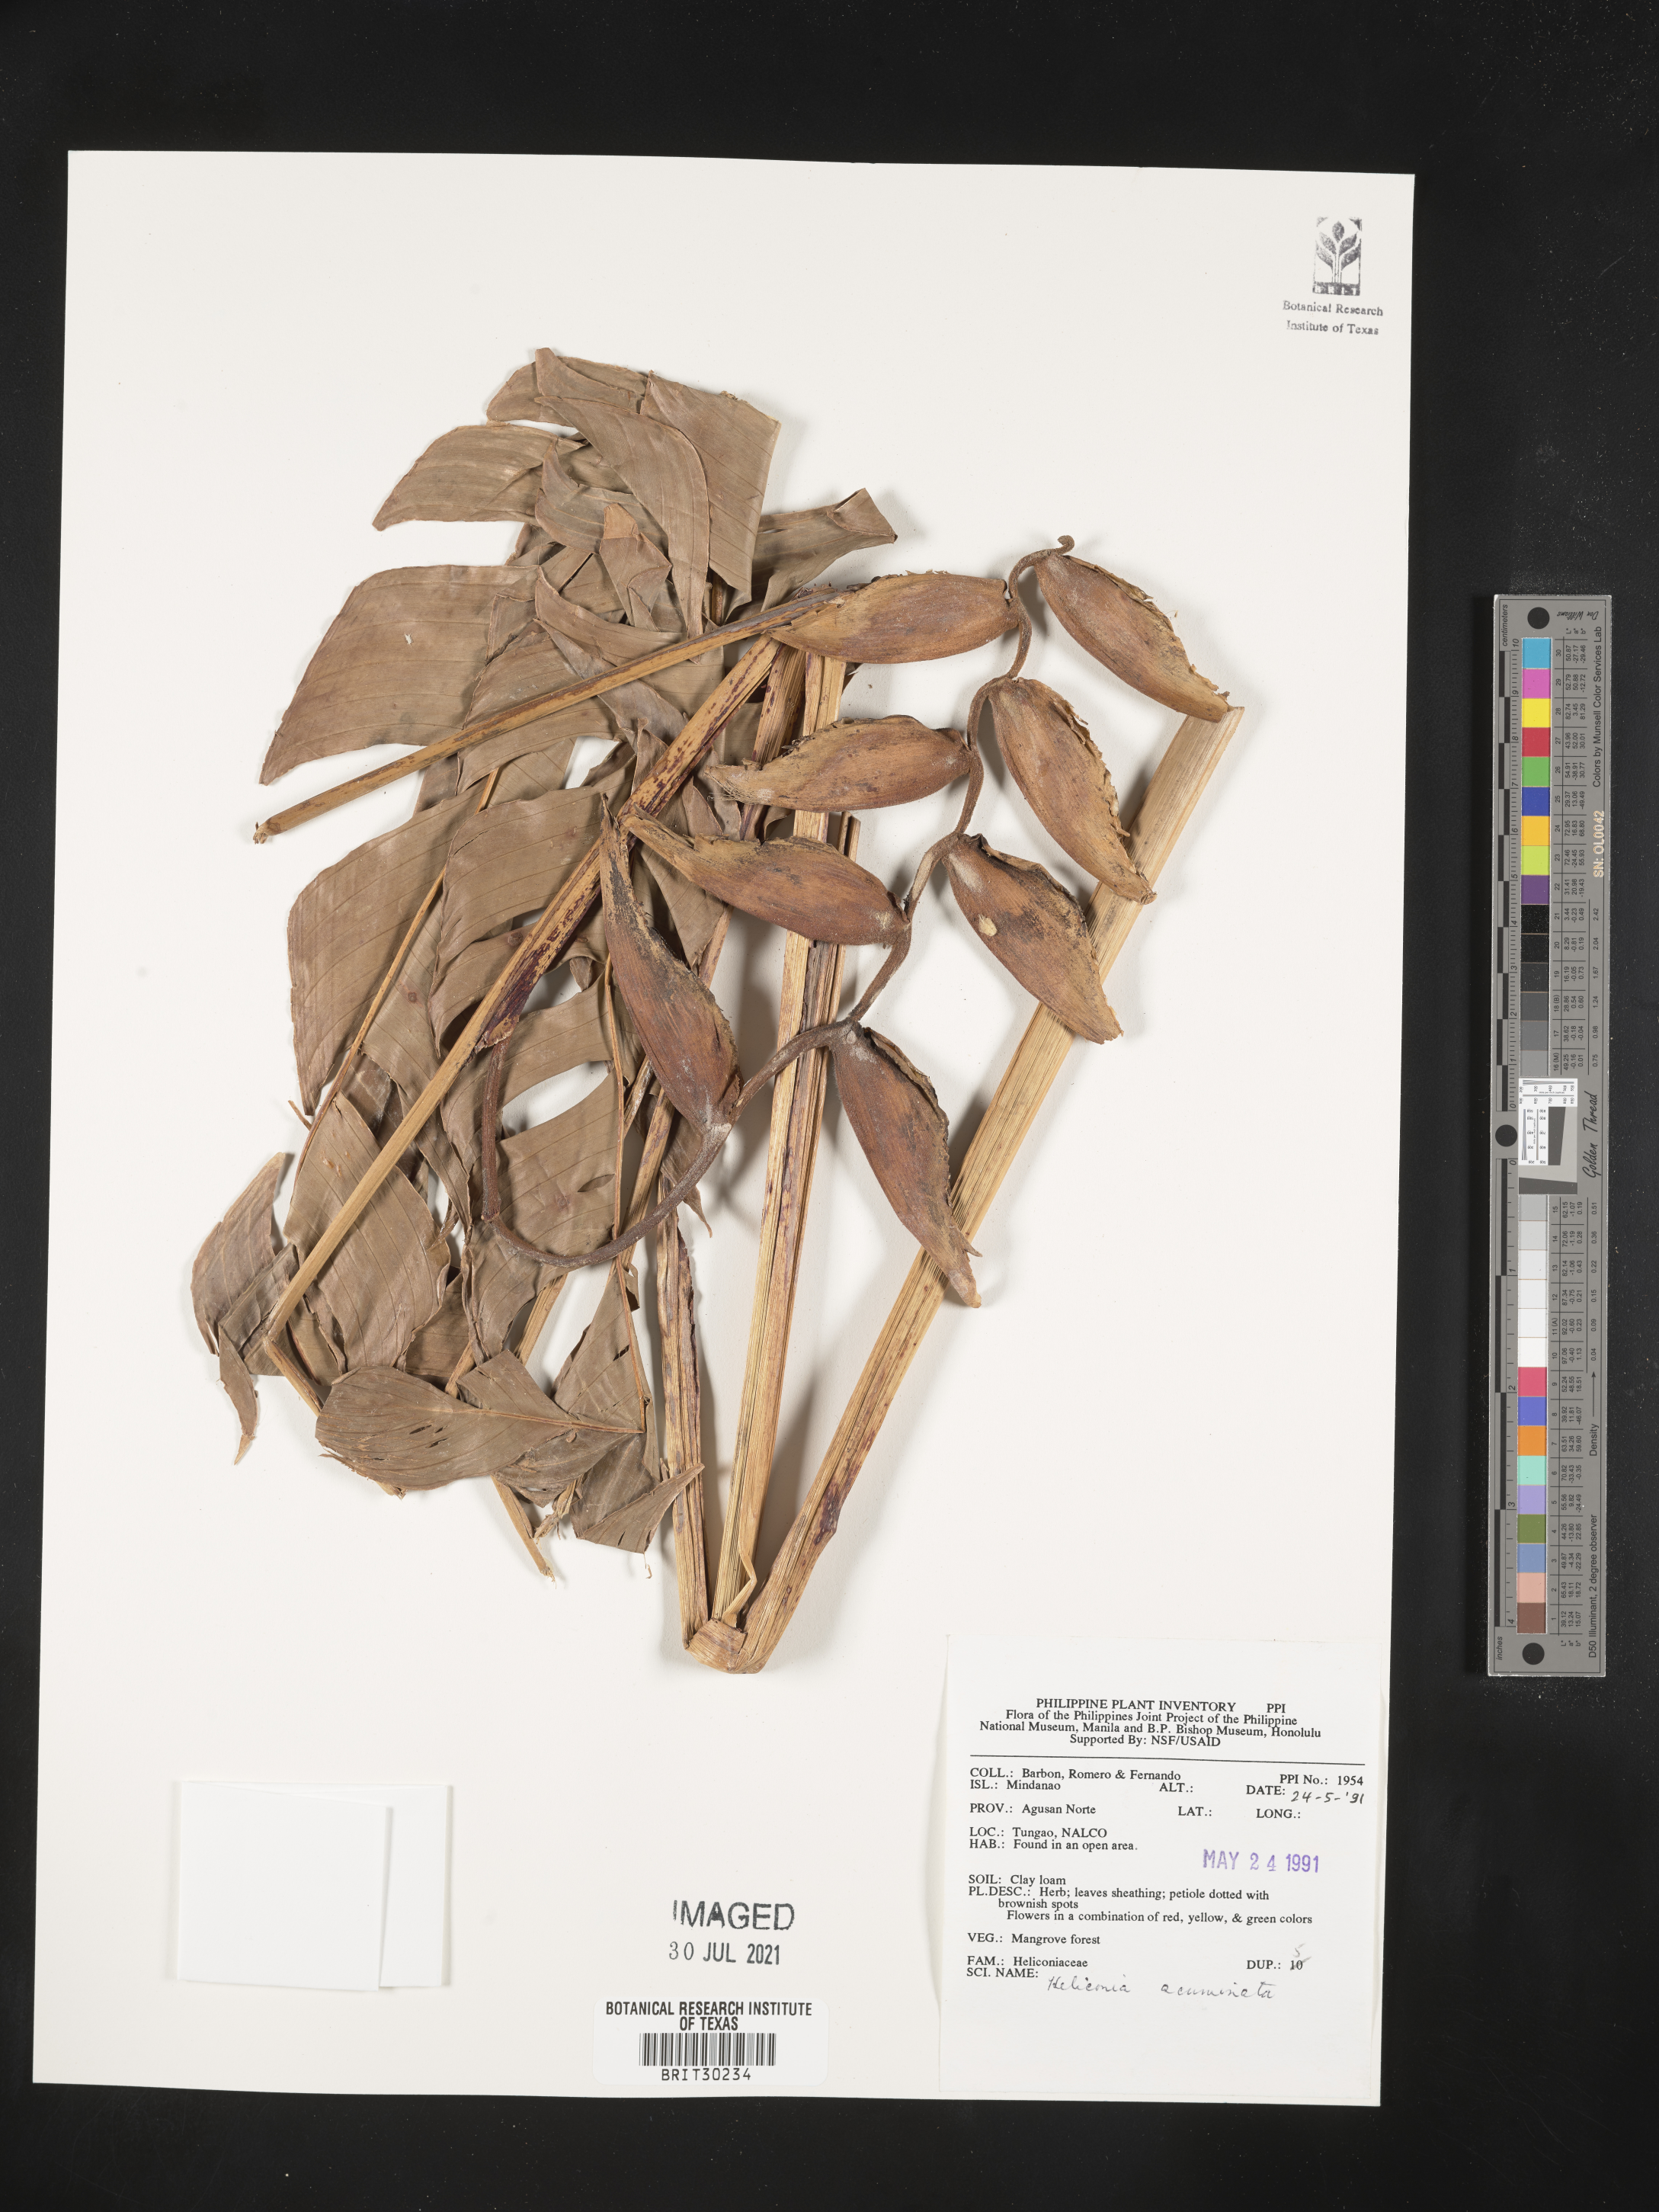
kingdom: Plantae
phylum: Tracheophyta
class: Liliopsida
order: Zingiberales
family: Heliconiaceae
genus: Heliconia
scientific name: Heliconia acuminata
